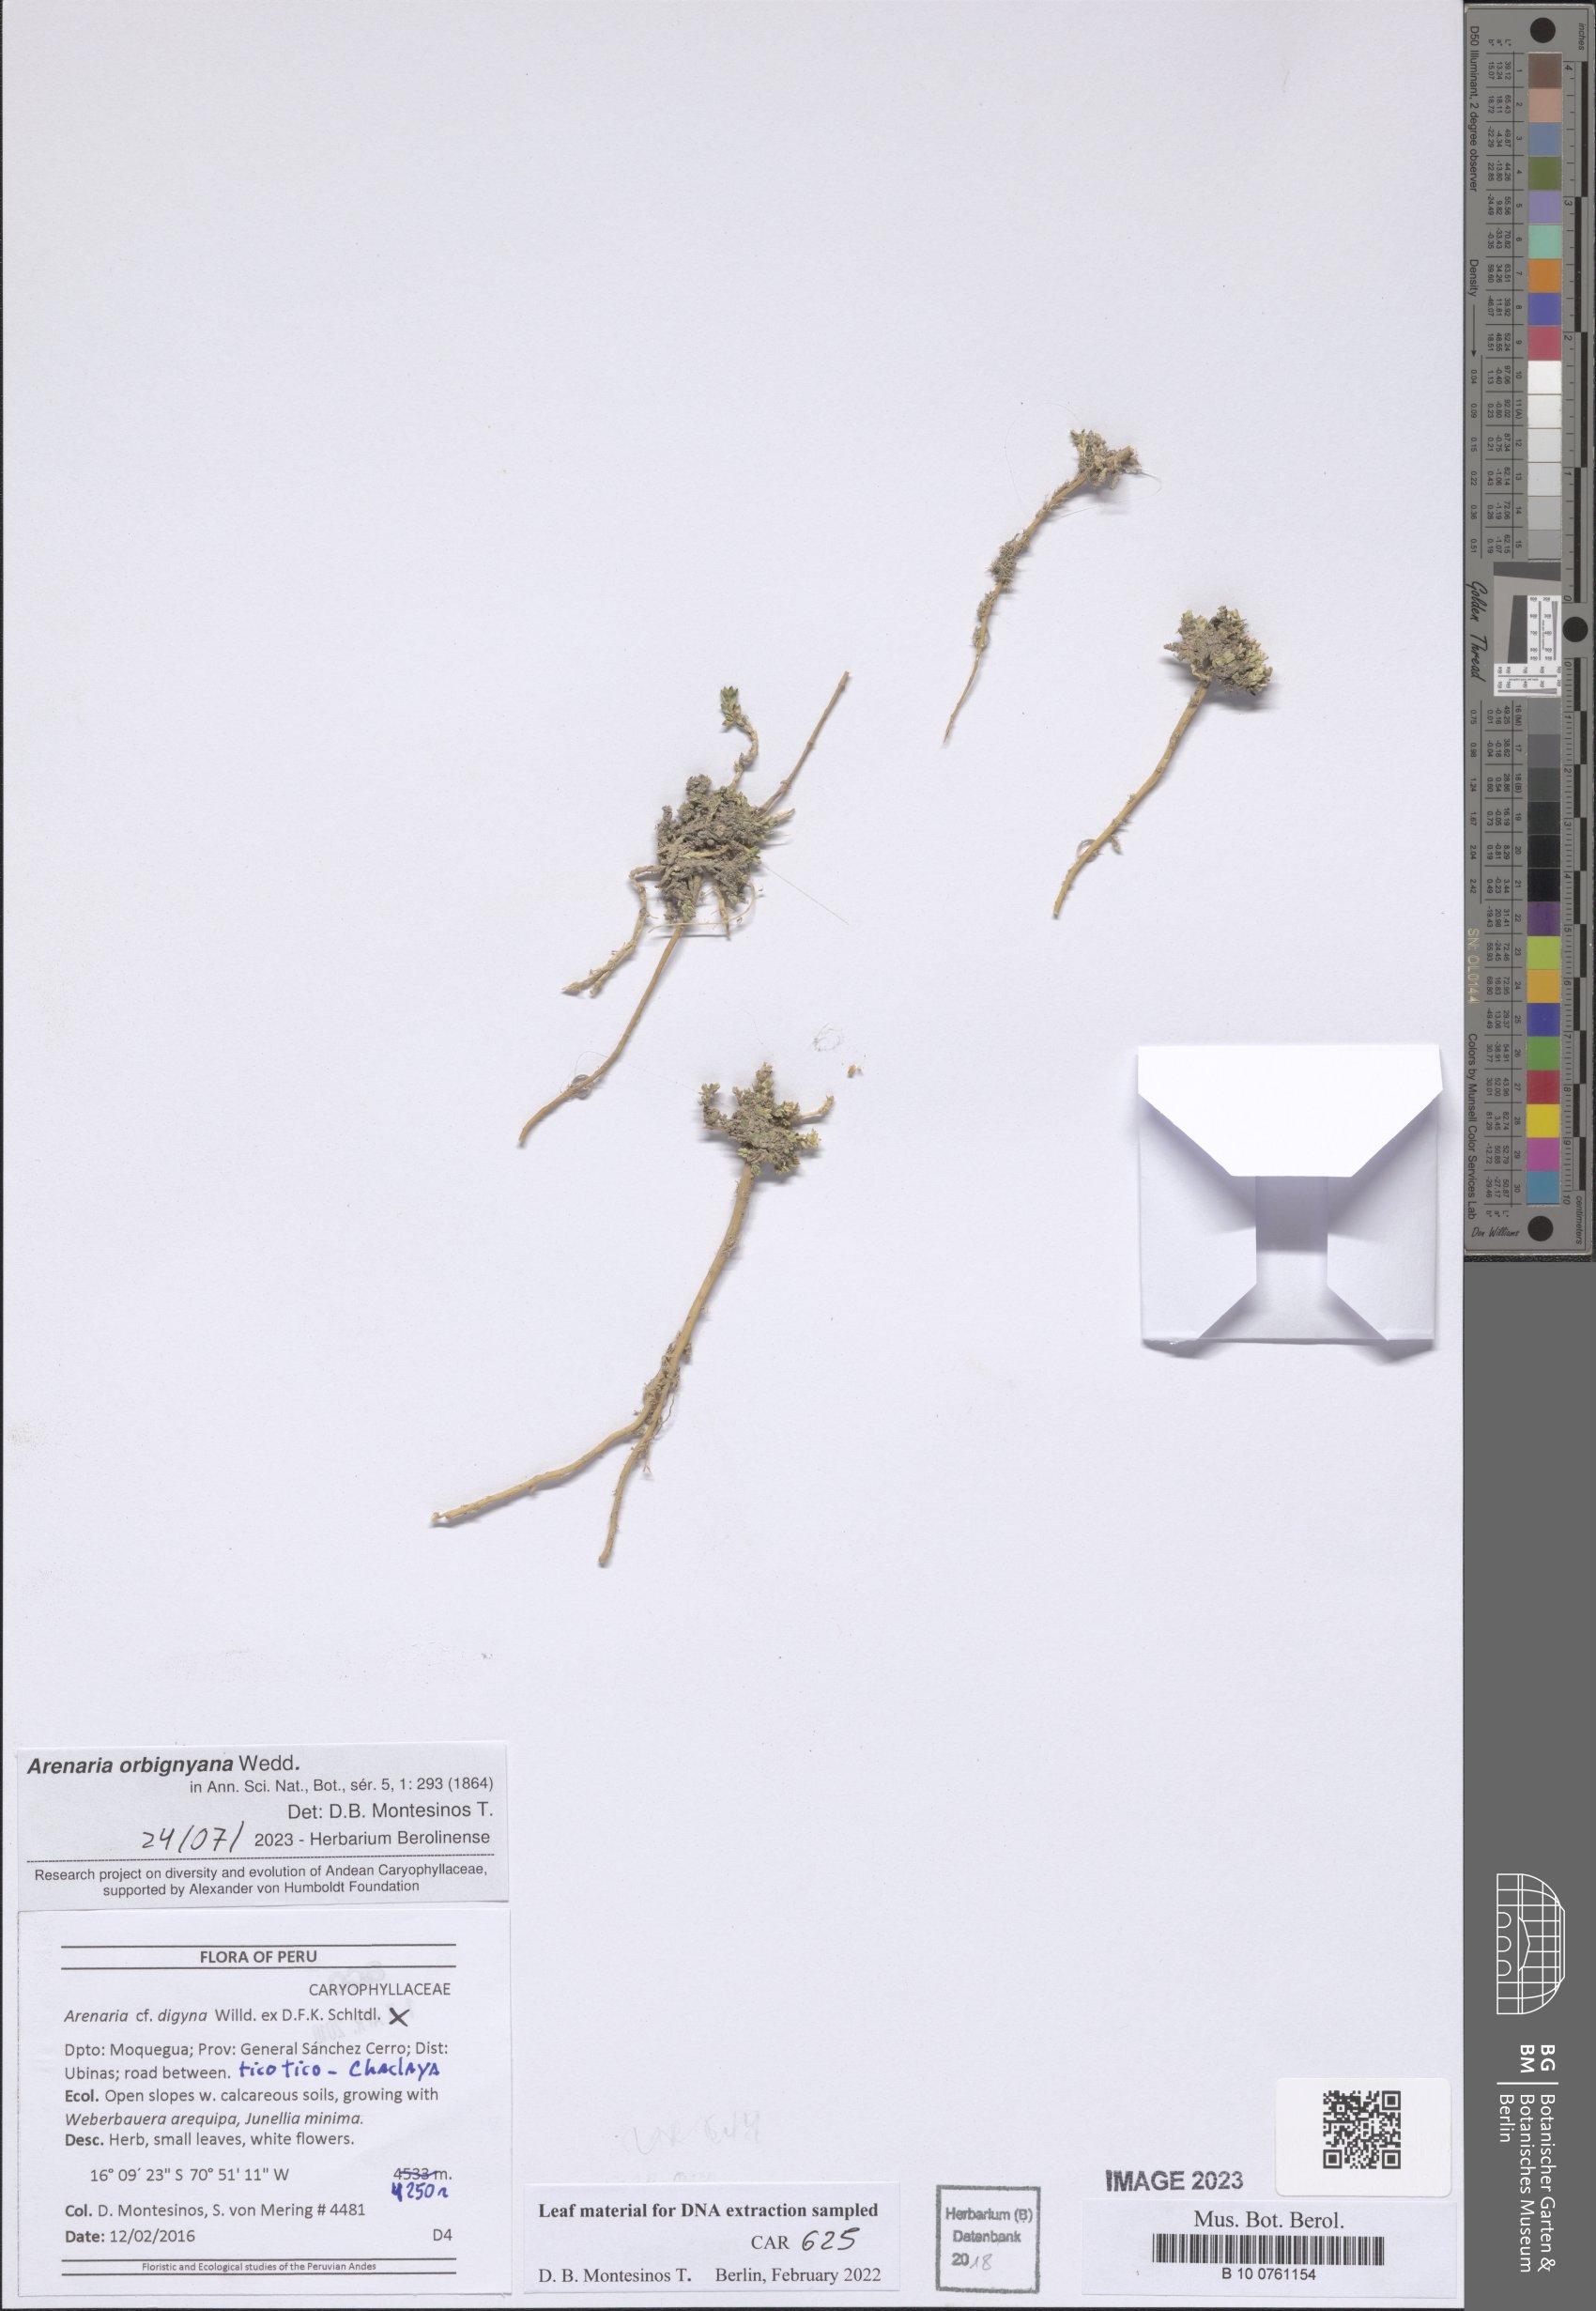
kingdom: Plantae
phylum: Tracheophyta
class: Magnoliopsida
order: Caryophyllales
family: Caryophyllaceae
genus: Arenaria
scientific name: Arenaria digyna
